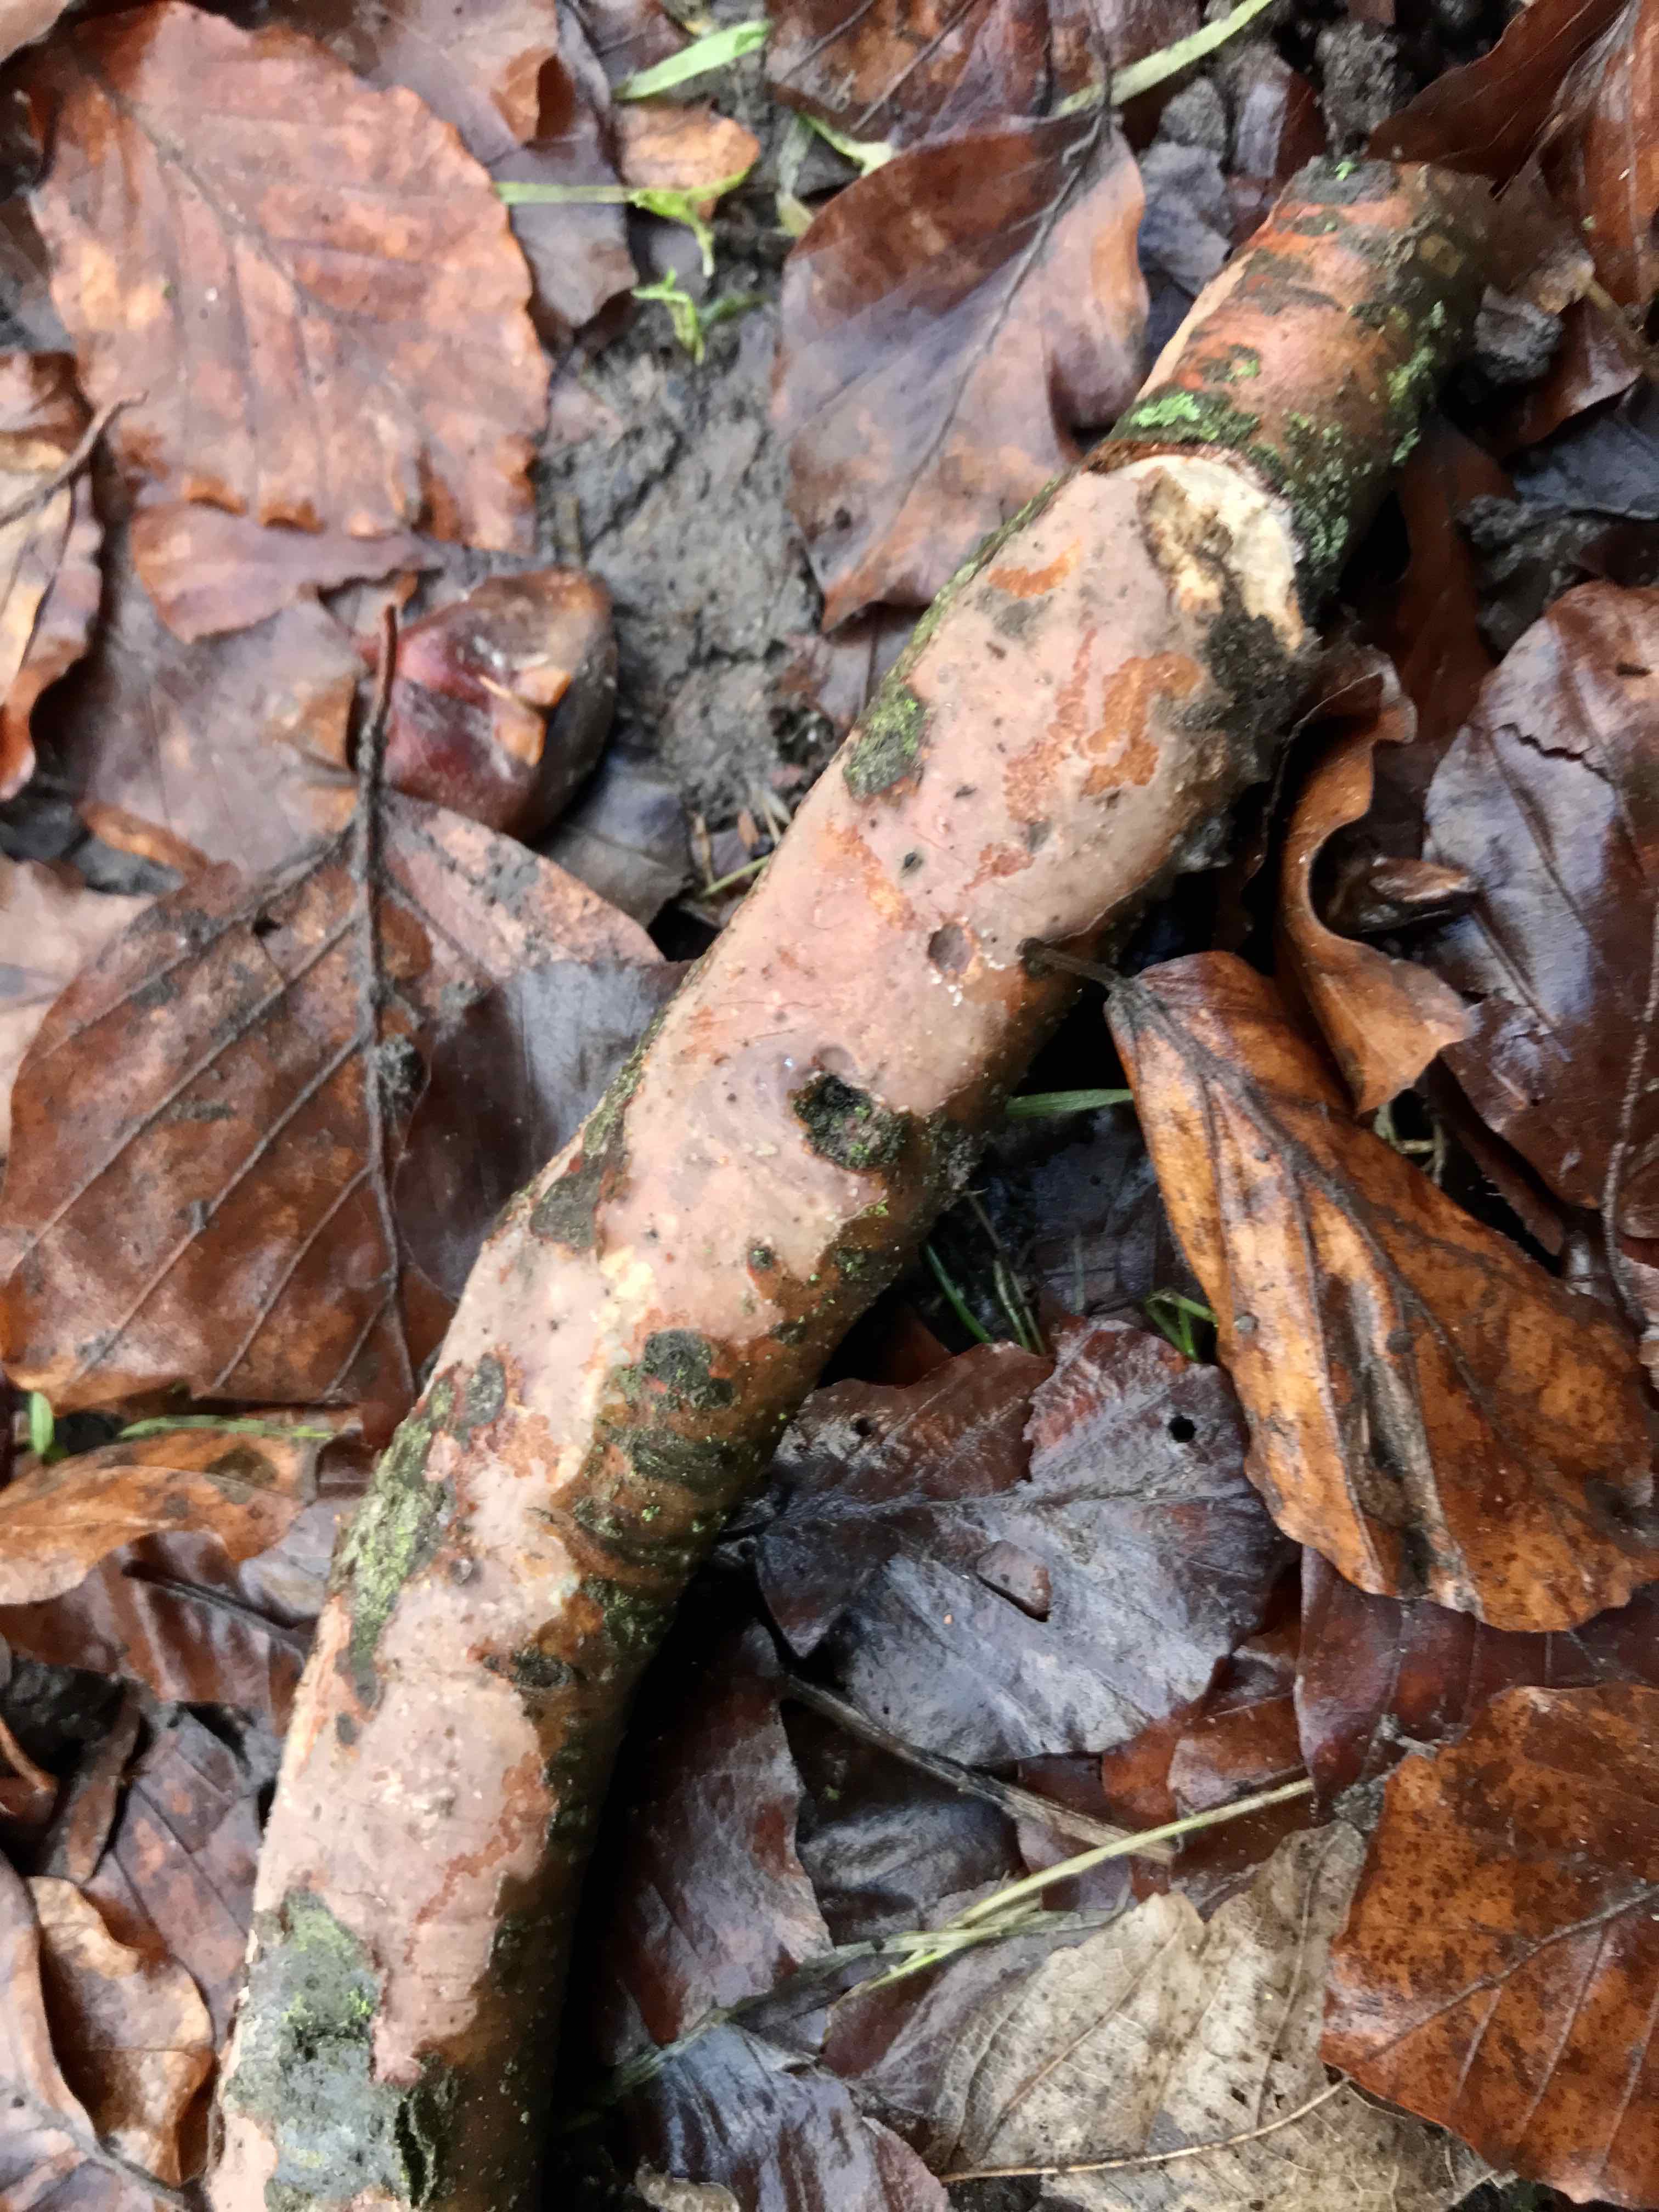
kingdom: Fungi
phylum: Basidiomycota
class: Agaricomycetes
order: Corticiales
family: Vuilleminiaceae
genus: Vuilleminia
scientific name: Vuilleminia comedens
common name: almindelig barksprænger
